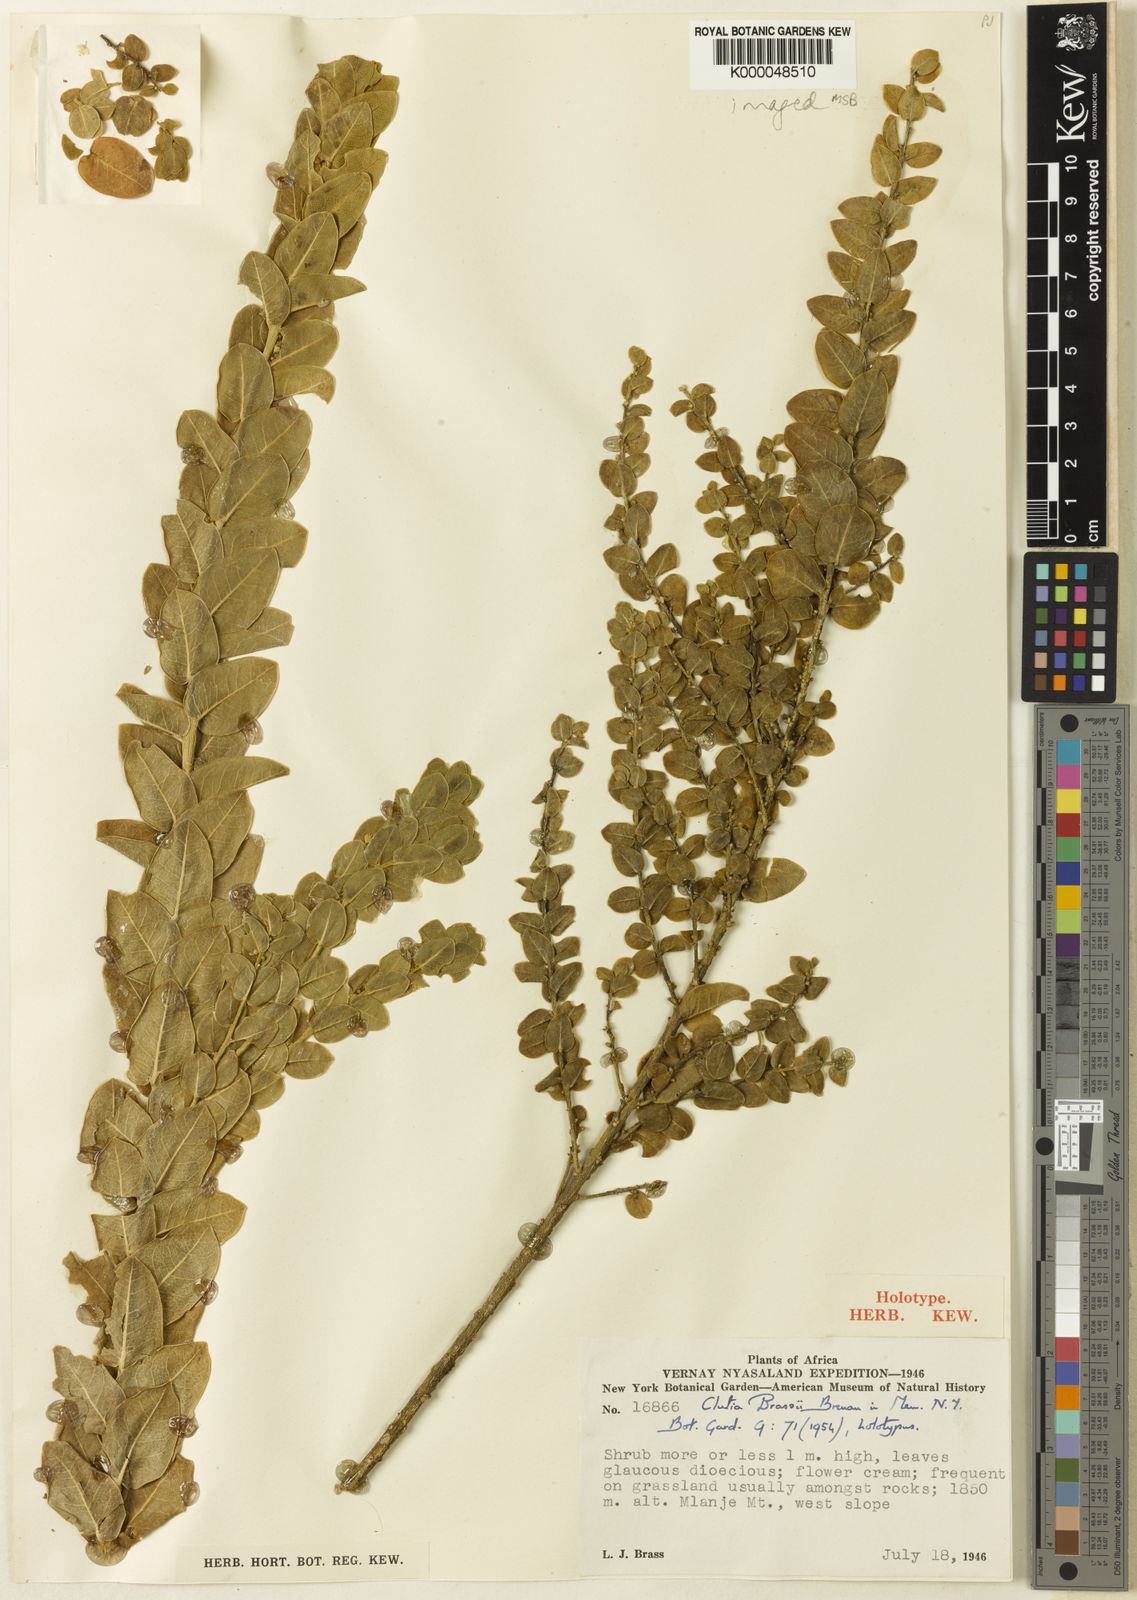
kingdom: Plantae
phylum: Tracheophyta
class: Magnoliopsida
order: Malpighiales
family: Peraceae
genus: Clutia
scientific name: Clutia brassii
